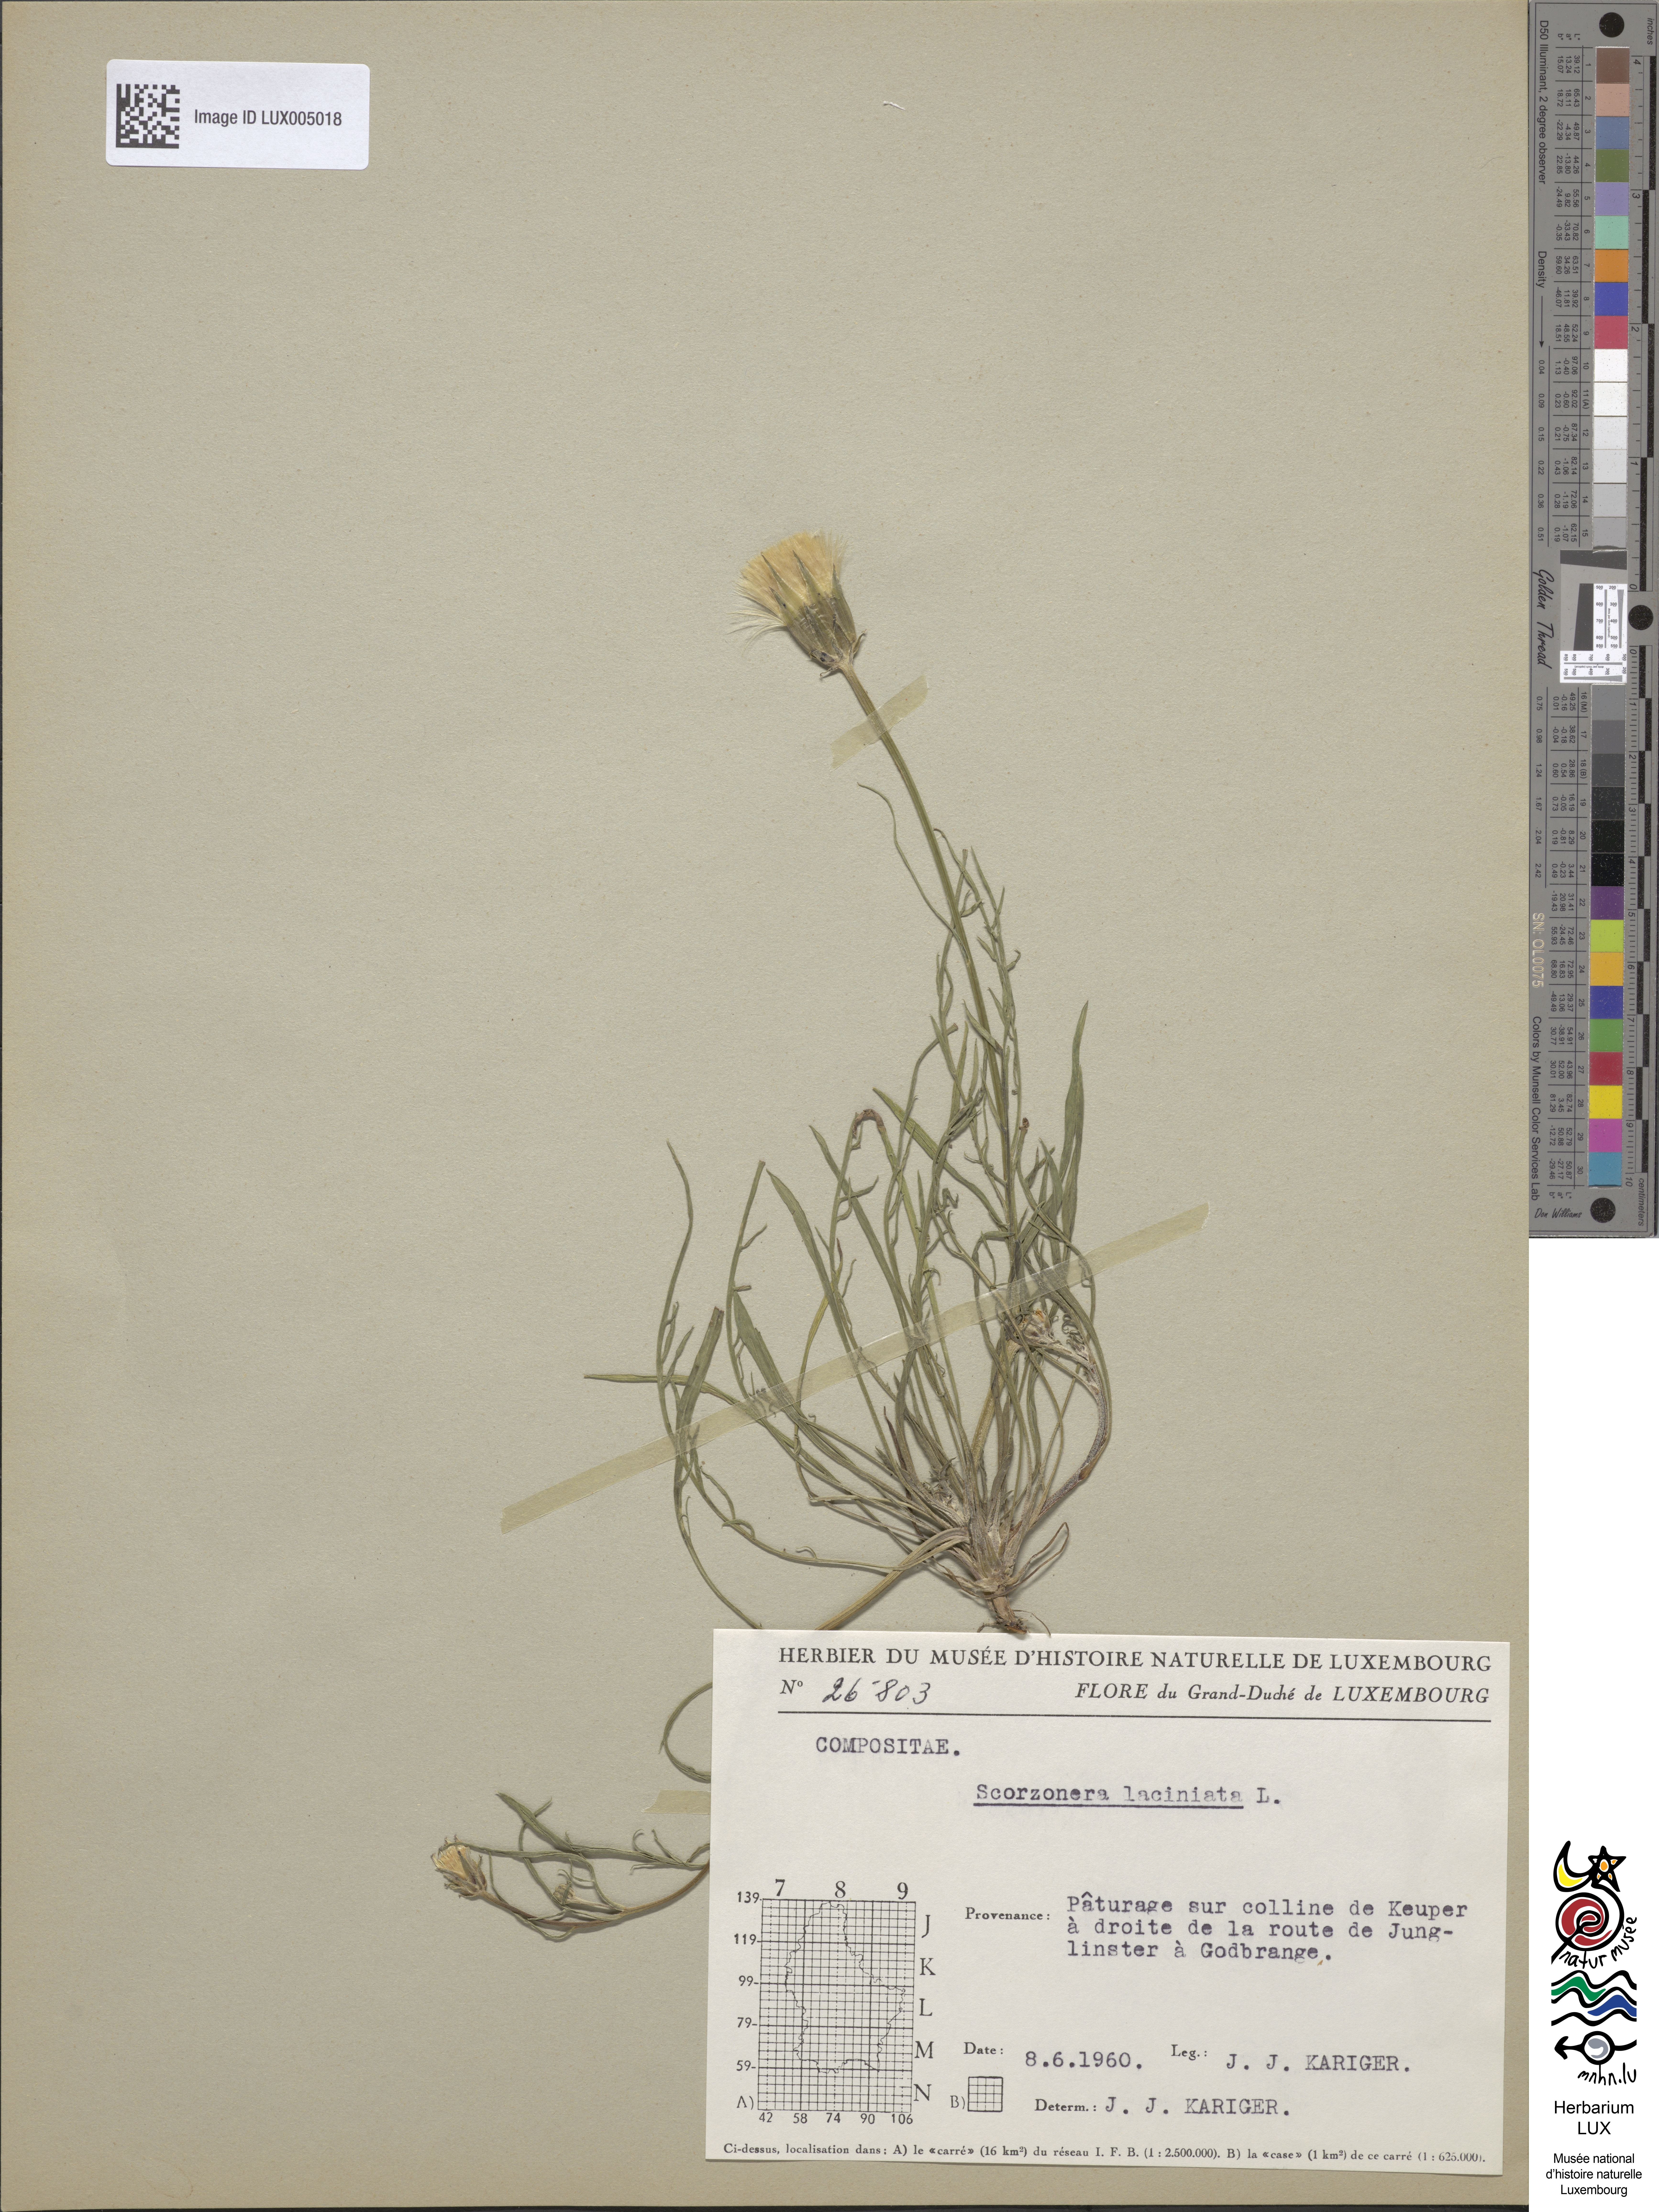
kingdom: Plantae
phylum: Tracheophyta
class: Magnoliopsida
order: Asterales
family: Asteraceae
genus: Scorzonera
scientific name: Scorzonera laciniata
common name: Cutleaf vipergrass
